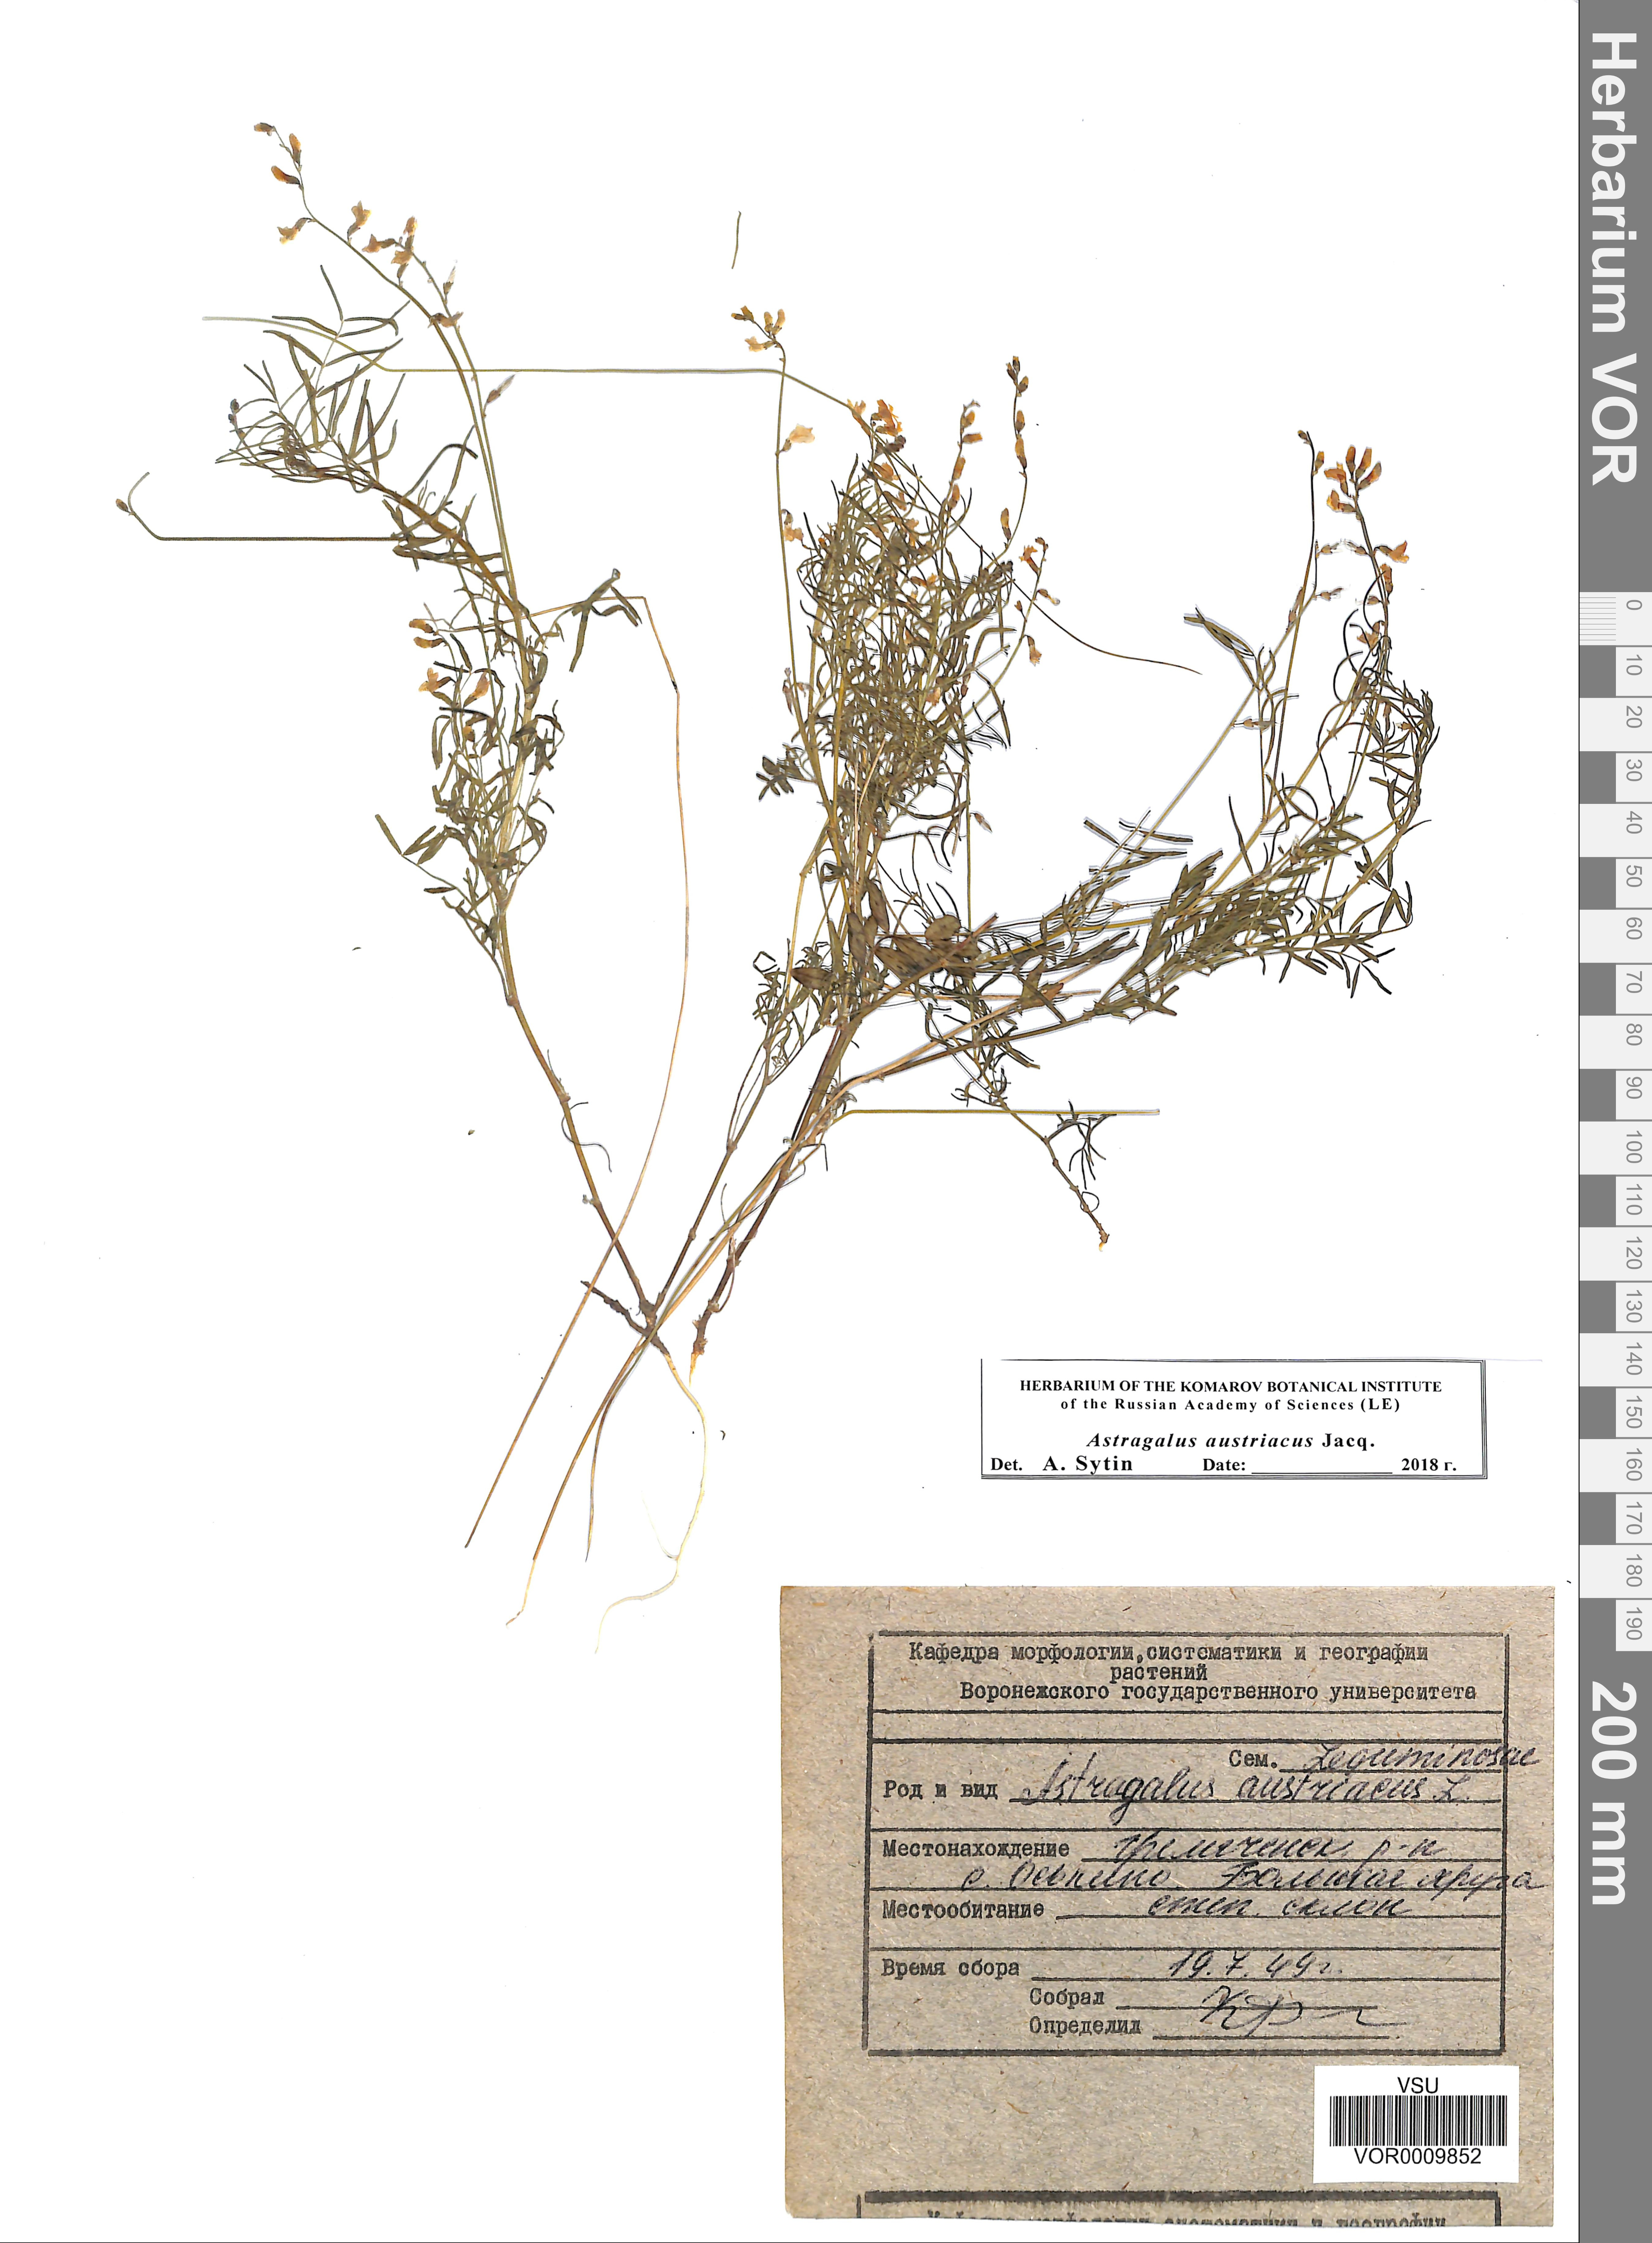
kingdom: Plantae
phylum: Tracheophyta
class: Magnoliopsida
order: Fabales
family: Fabaceae
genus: Astragalus
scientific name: Astragalus austriacus
